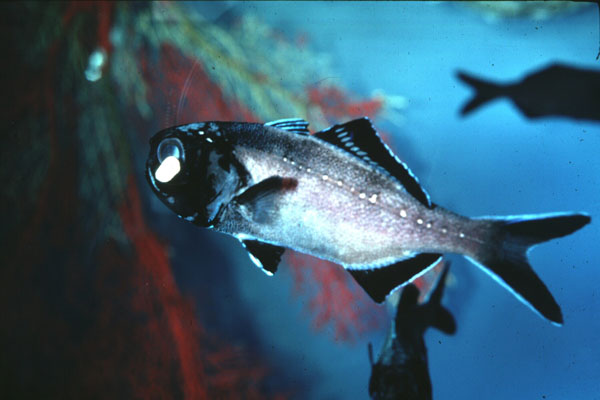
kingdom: Animalia
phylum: Chordata
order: Beryciformes
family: Anomalopidae
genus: Anomalops
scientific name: Anomalops
